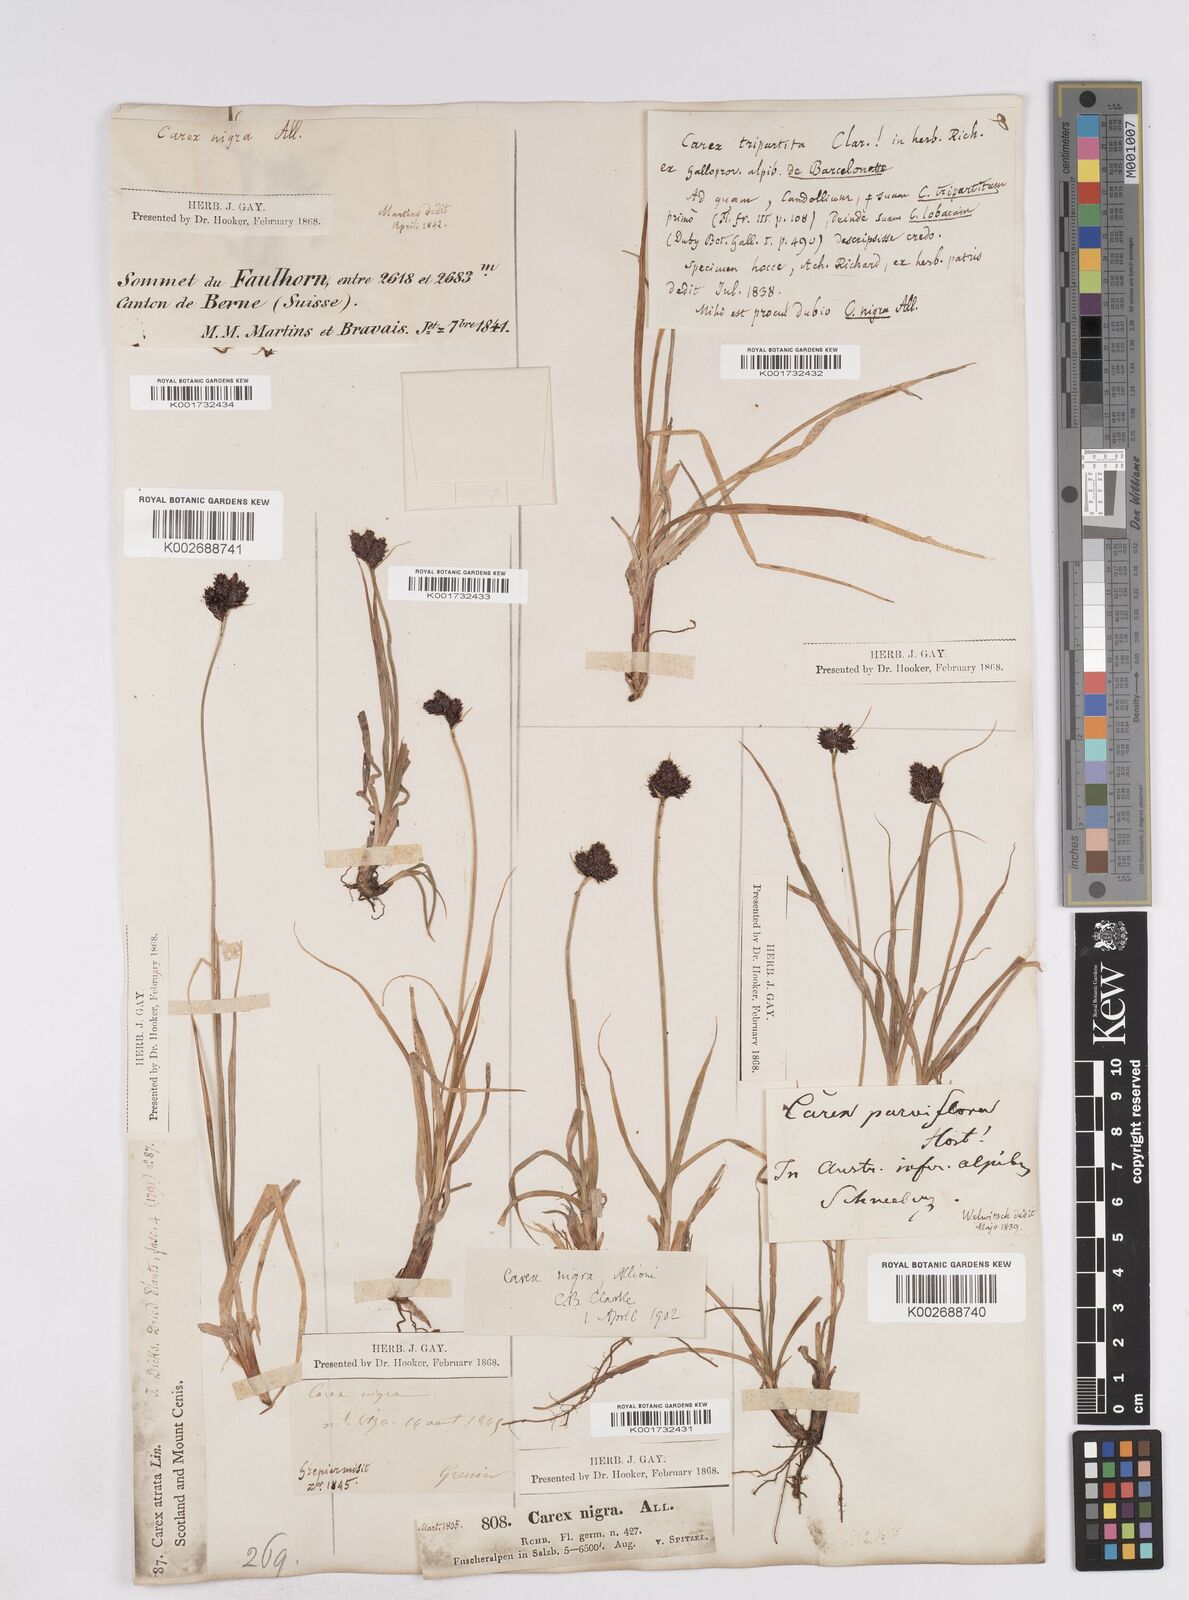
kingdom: Plantae
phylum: Tracheophyta
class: Liliopsida
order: Poales
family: Cyperaceae
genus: Carex
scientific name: Carex parviflora
